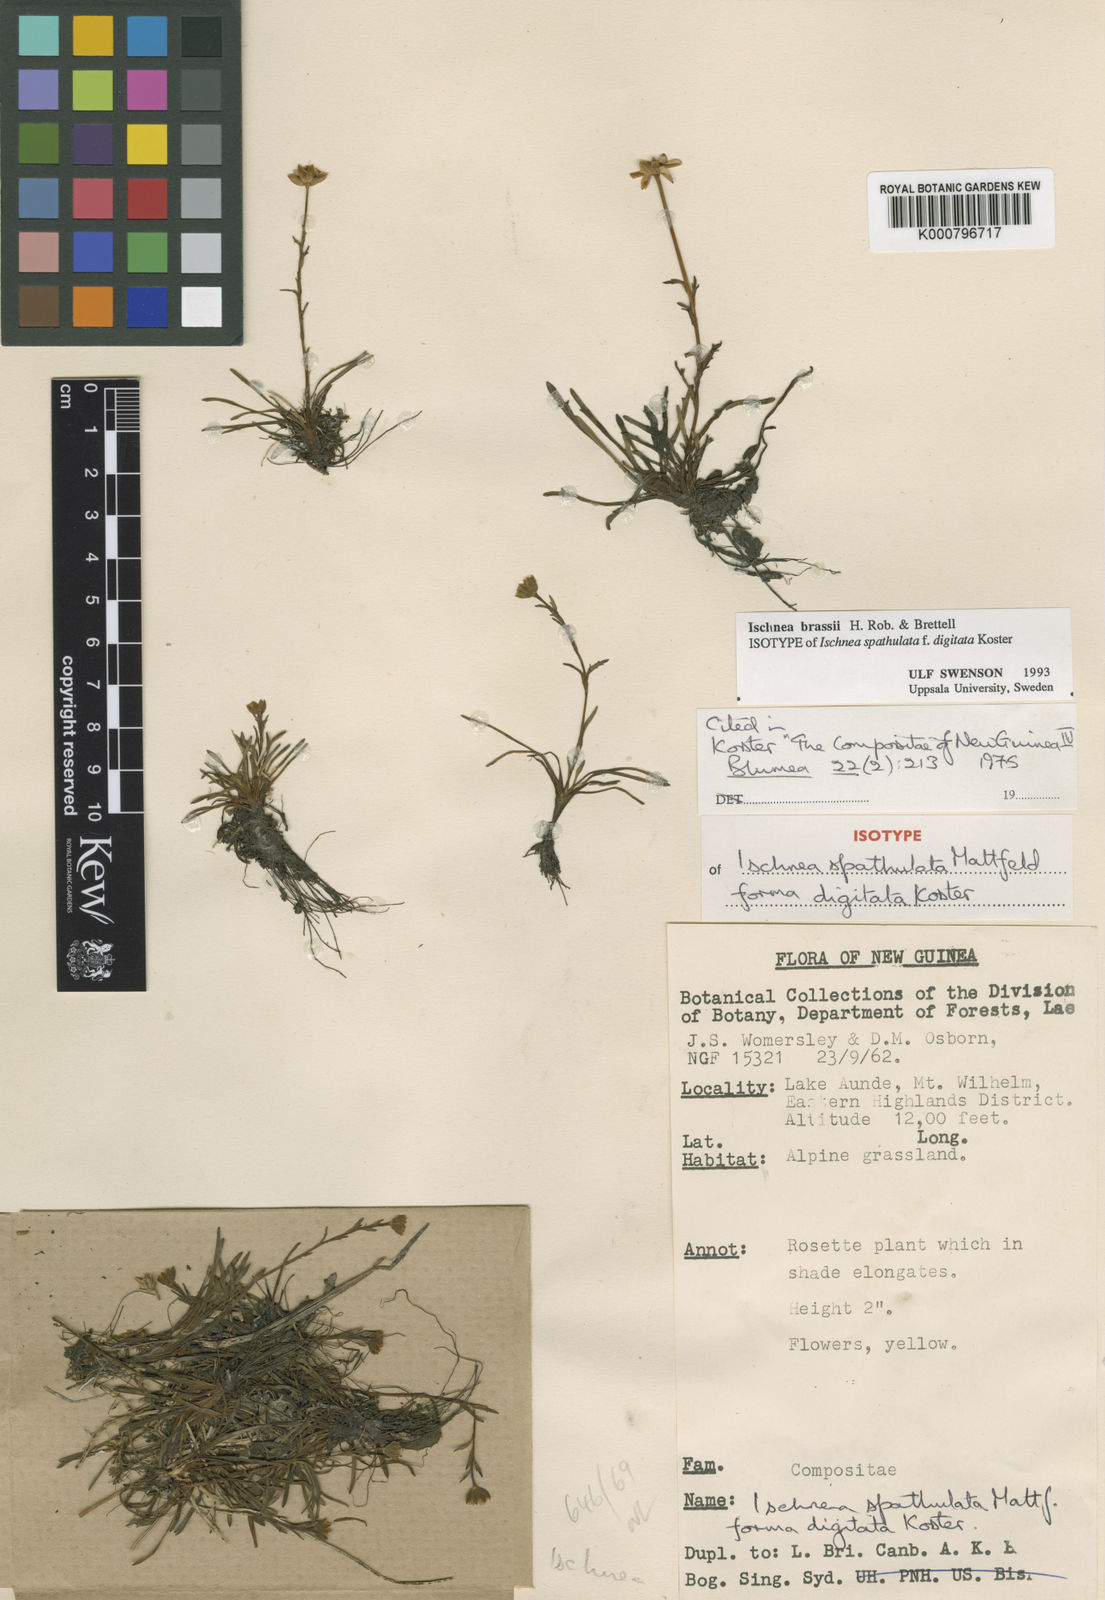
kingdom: Plantae
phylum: Tracheophyta
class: Magnoliopsida
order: Asterales
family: Asteraceae
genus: Ischnea
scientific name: Ischnea brassii
